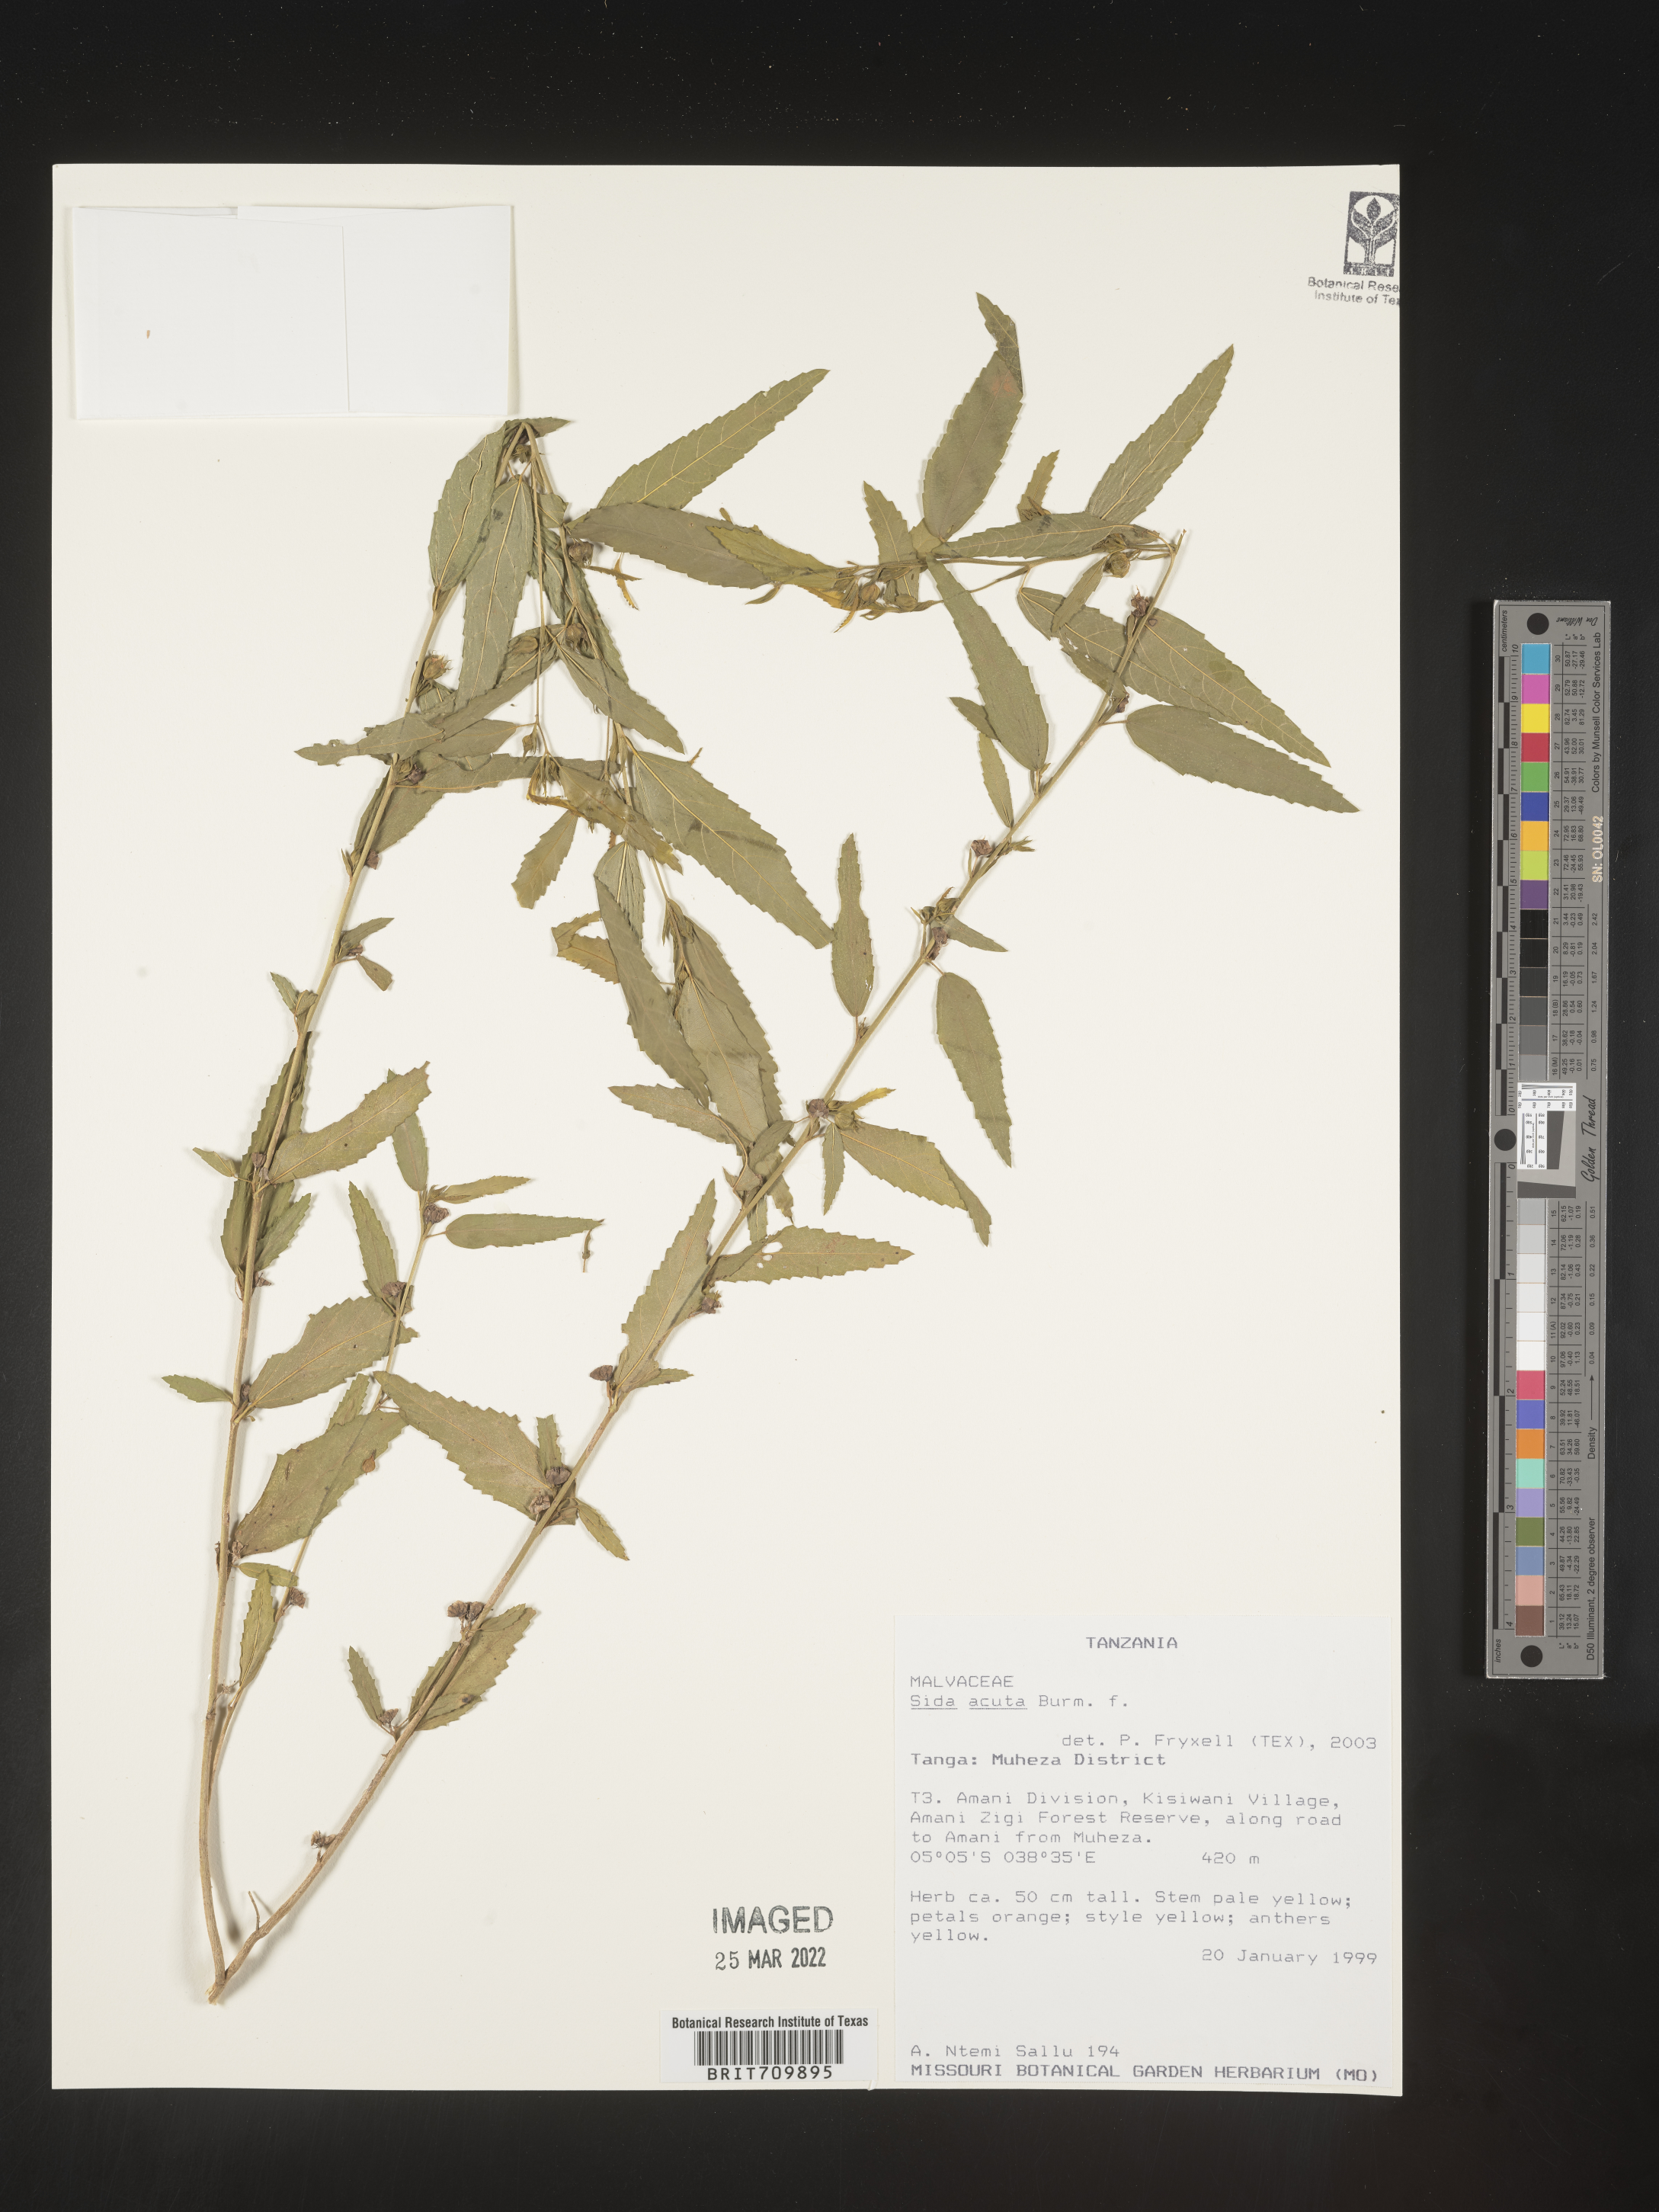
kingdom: Plantae
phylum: Tracheophyta
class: Magnoliopsida
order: Malvales
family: Malvaceae
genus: Sida
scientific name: Sida
